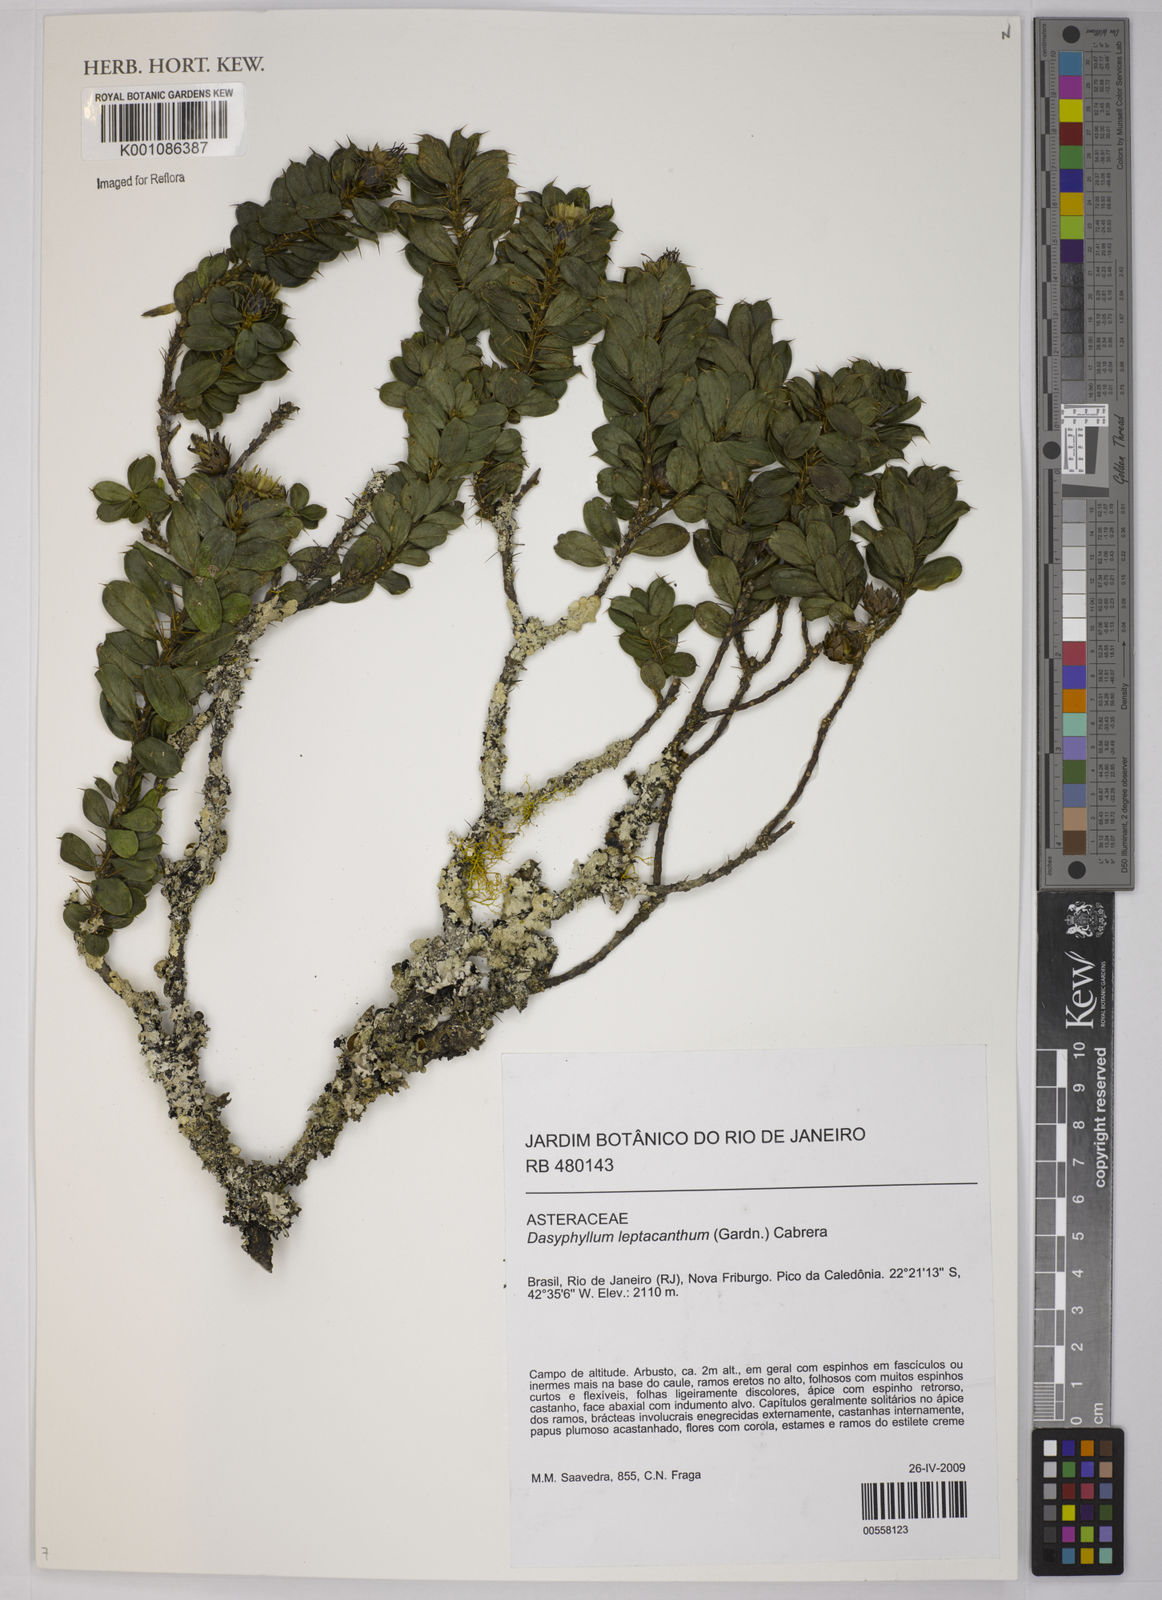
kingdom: Plantae
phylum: Tracheophyta
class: Magnoliopsida
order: Asterales
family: Asteraceae
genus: Dasyphyllum
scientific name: Dasyphyllum leptacanthum
